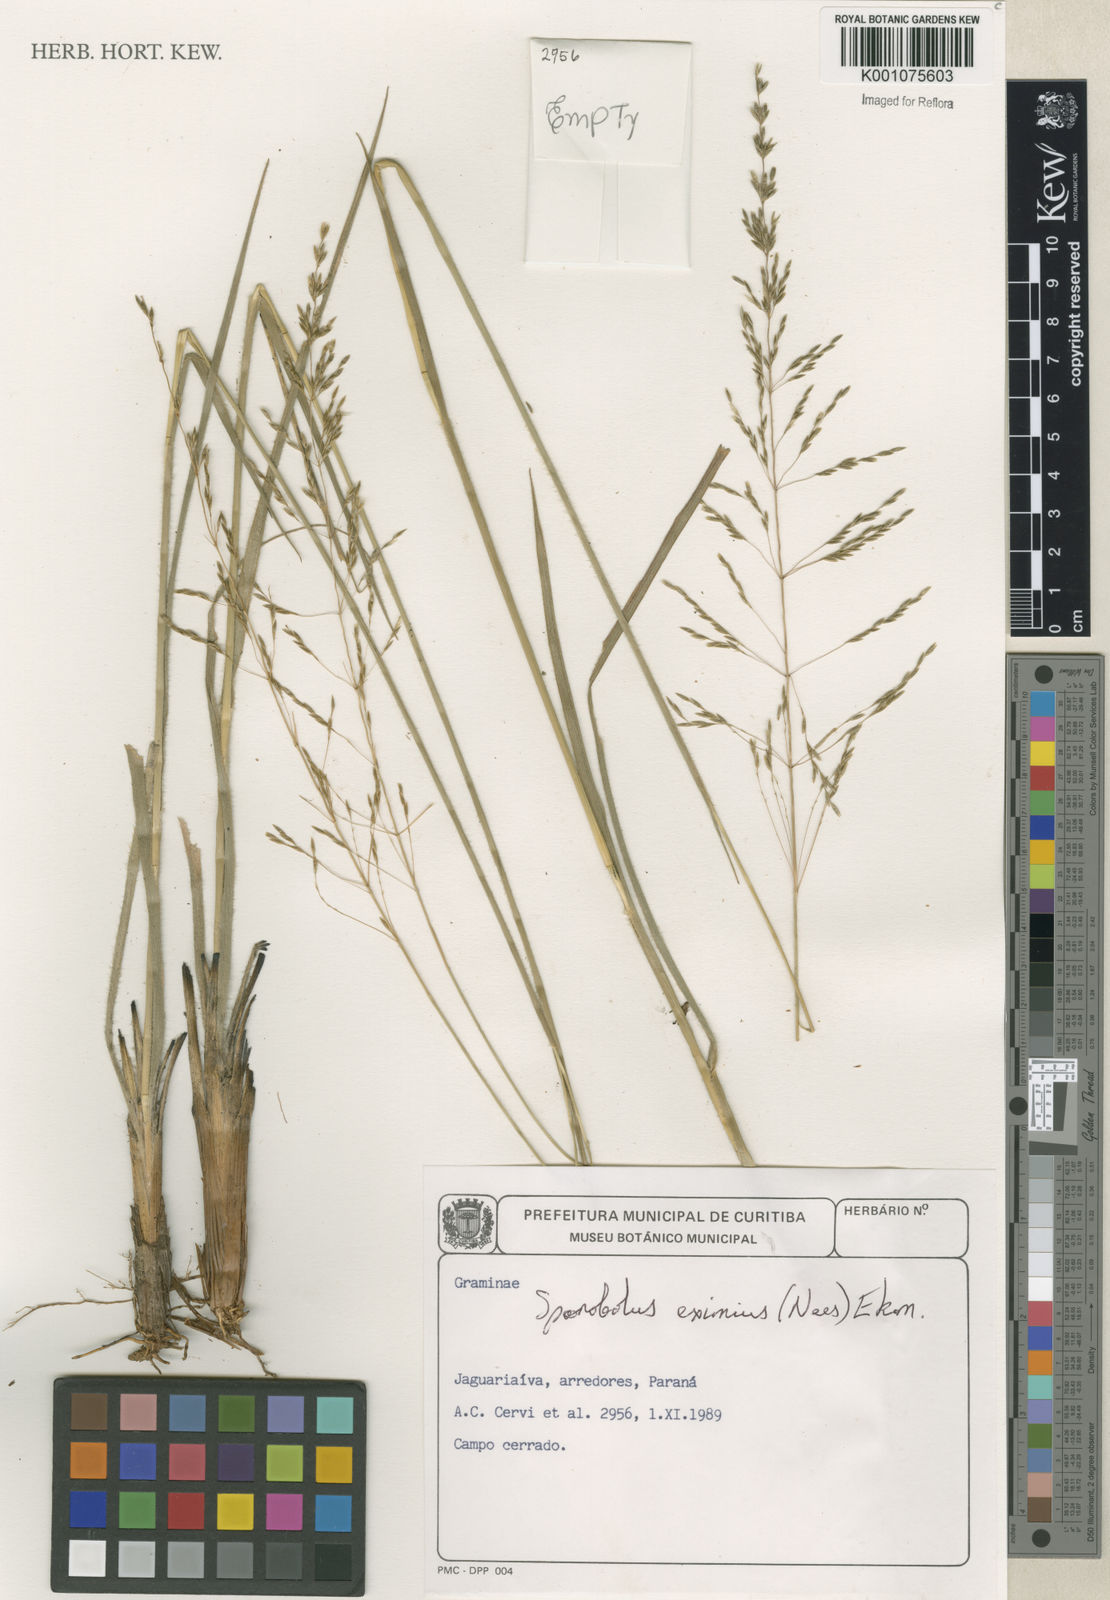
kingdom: Plantae
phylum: Tracheophyta
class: Liliopsida
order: Poales
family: Poaceae
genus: Sporobolus
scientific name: Sporobolus eximius
